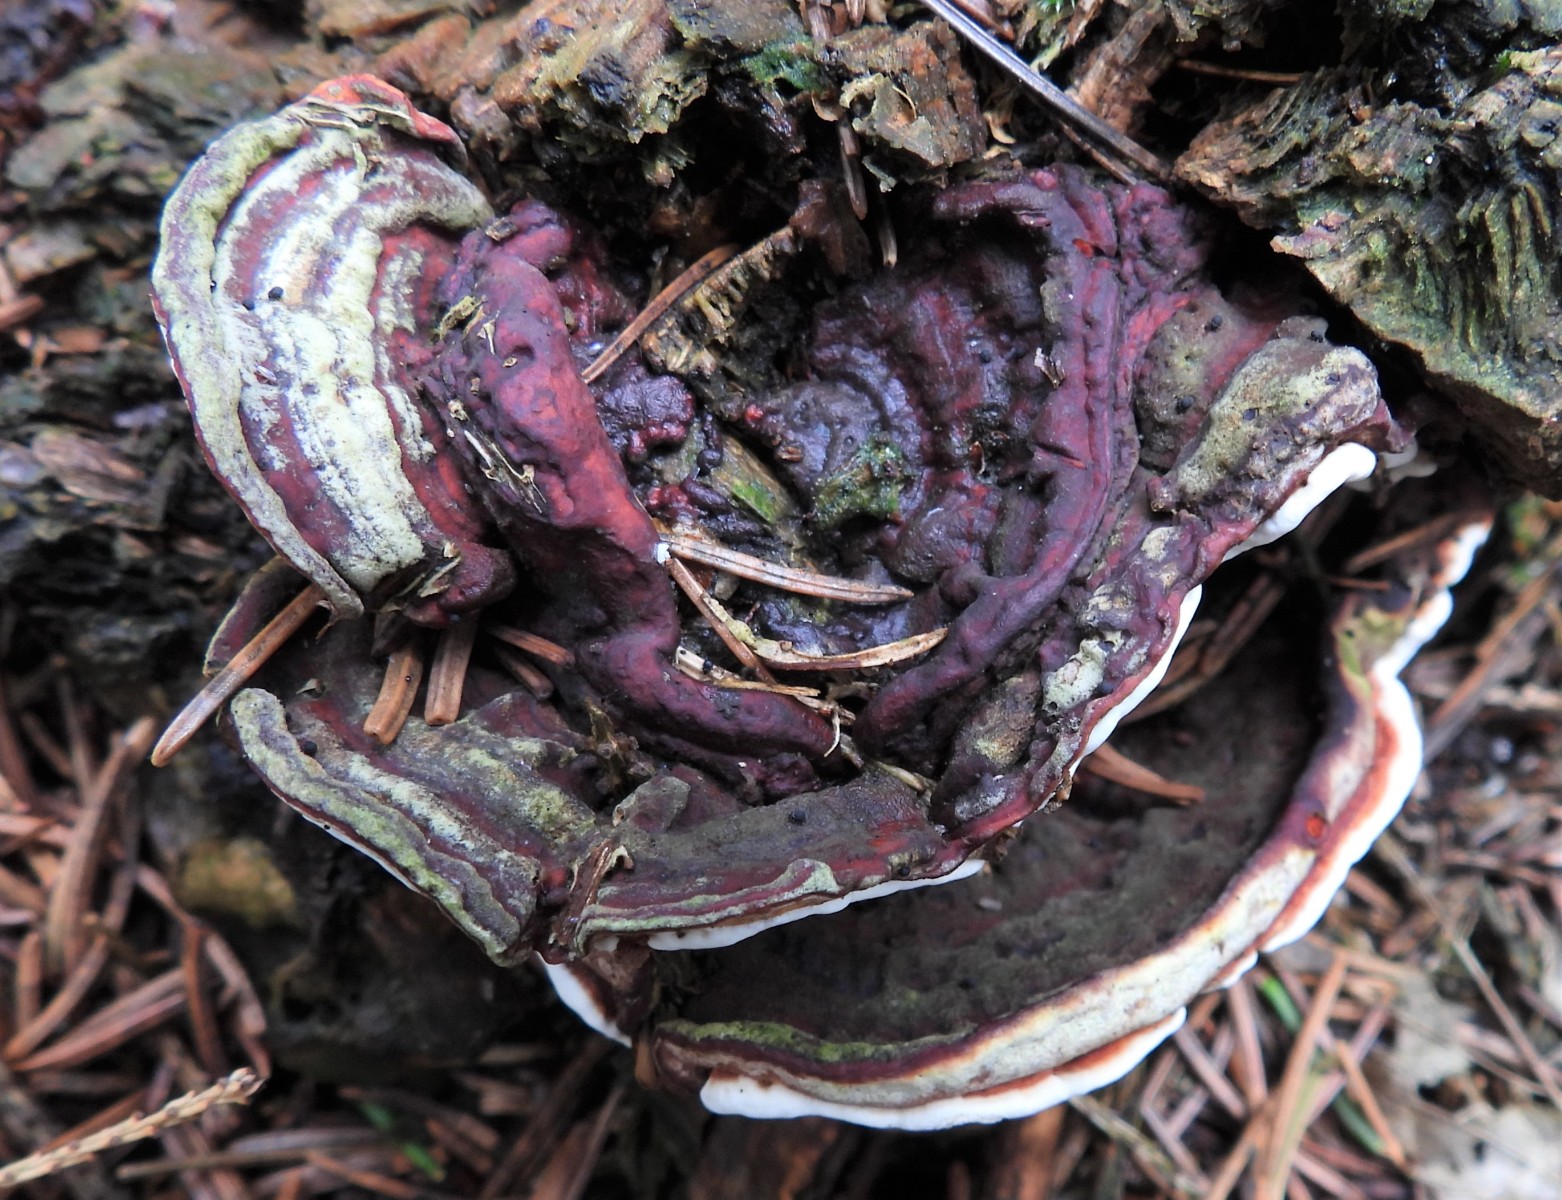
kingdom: Fungi
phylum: Basidiomycota
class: Agaricomycetes
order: Russulales
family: Bondarzewiaceae
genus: Heterobasidion
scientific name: Heterobasidion annosum
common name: almindelig rodfordærver
